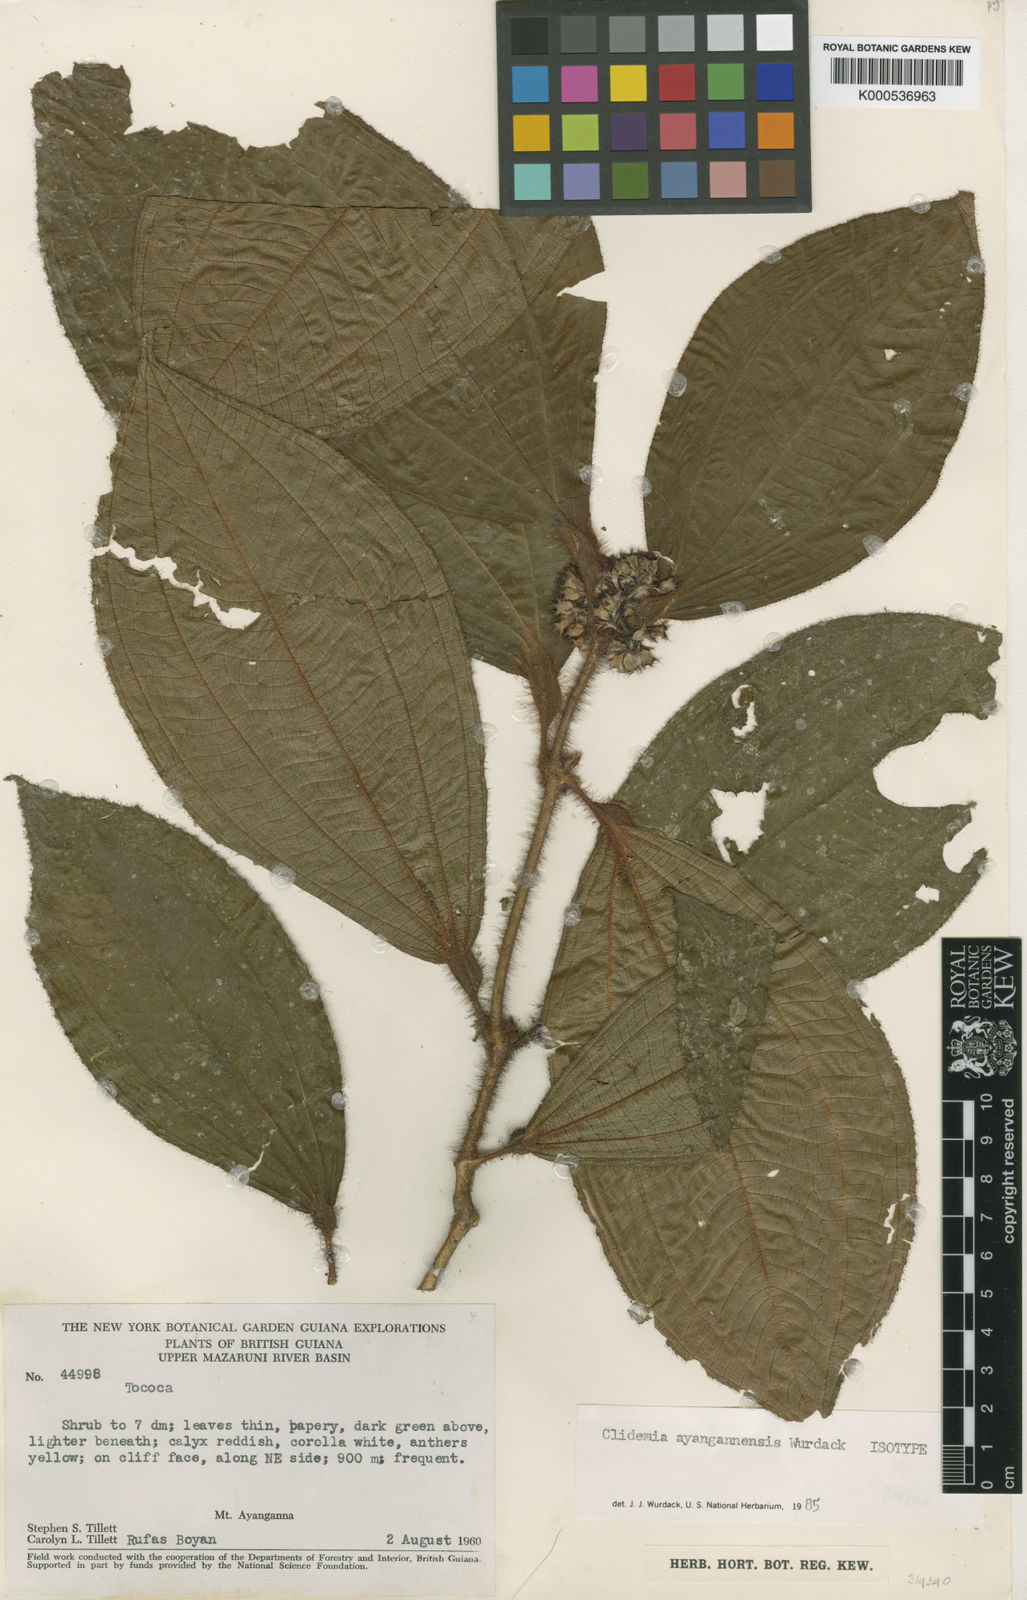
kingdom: Plantae
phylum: Tracheophyta
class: Magnoliopsida
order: Myrtales
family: Melastomataceae
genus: Miconia
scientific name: Miconia
